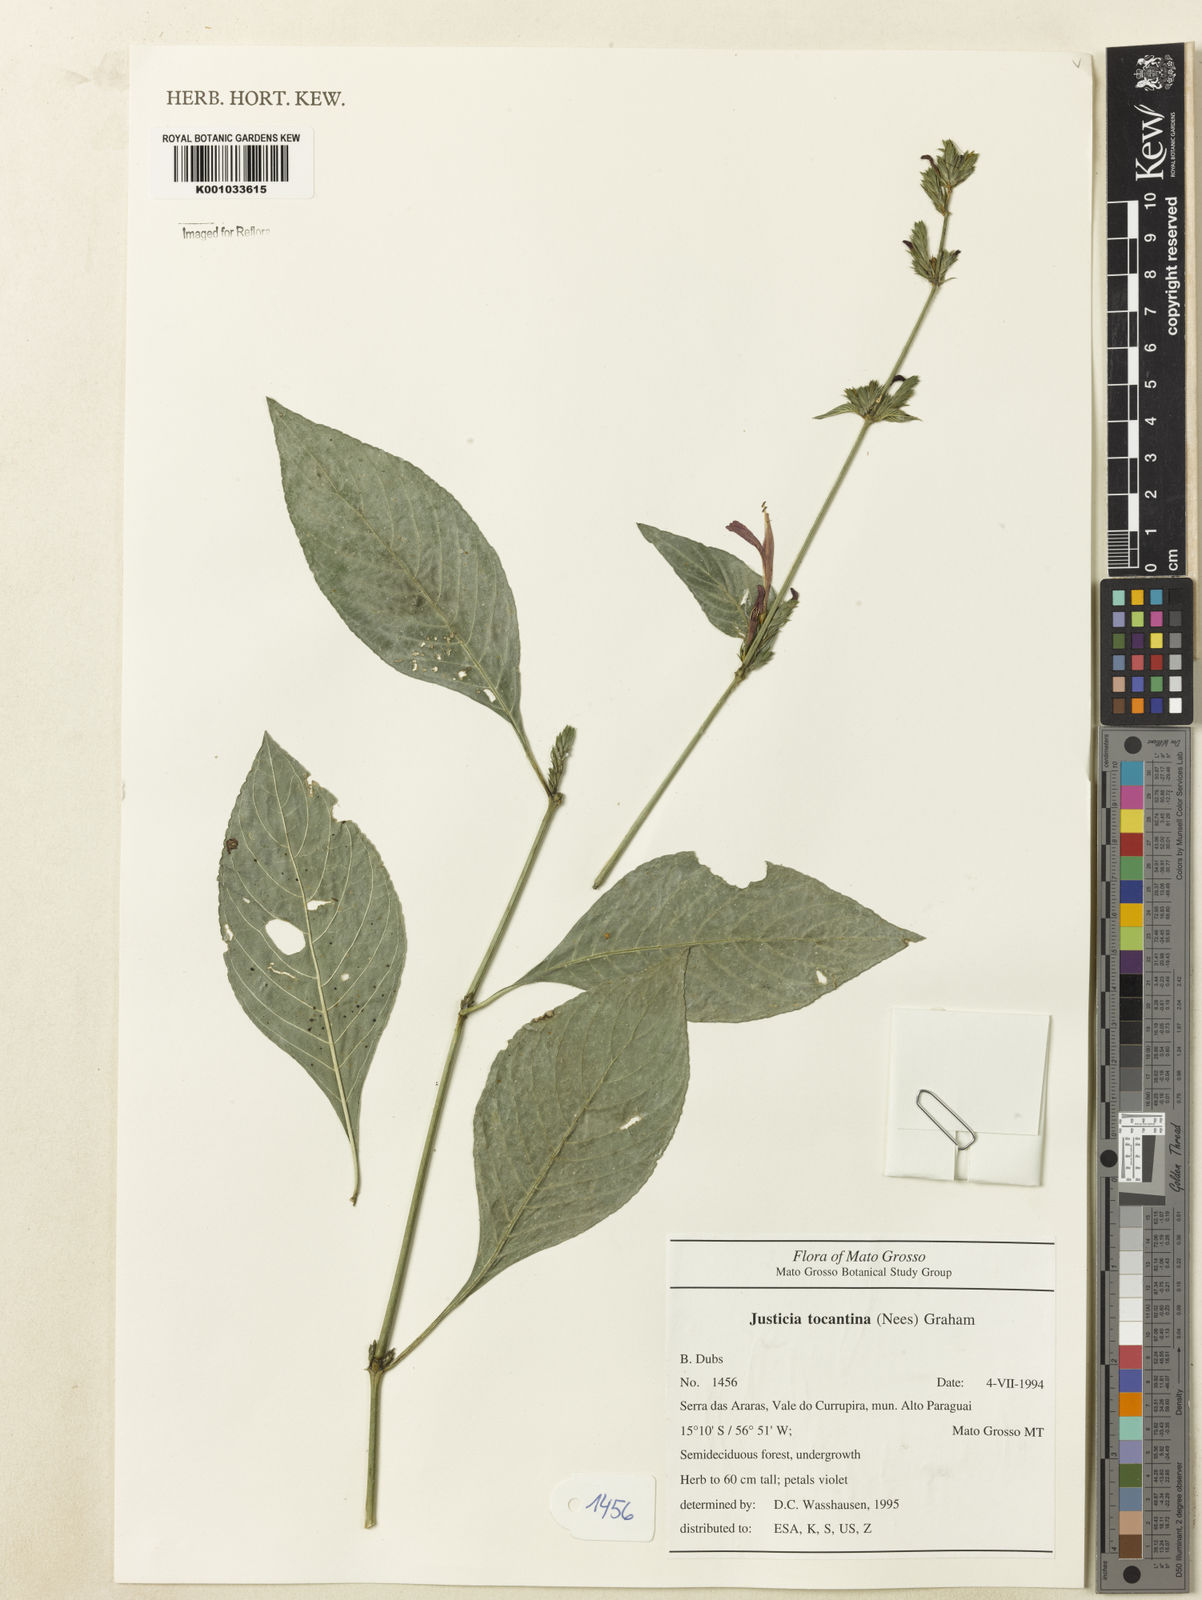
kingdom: Plantae
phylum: Tracheophyta
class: Magnoliopsida
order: Lamiales
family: Acanthaceae
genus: Justicia
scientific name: Justicia tocantina
